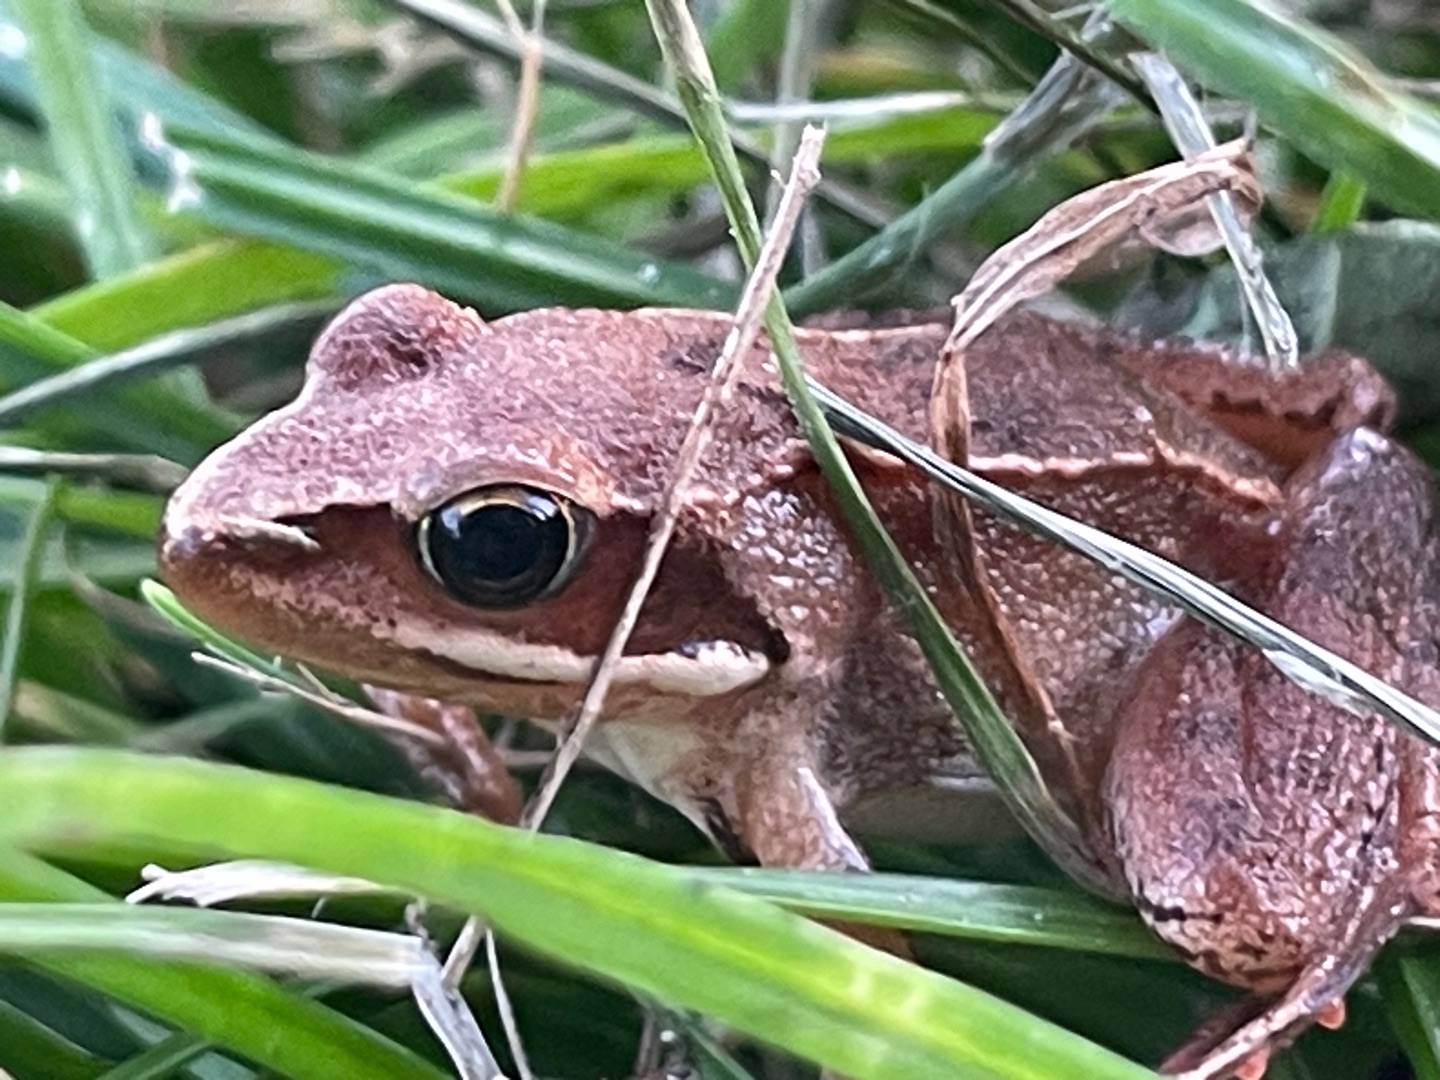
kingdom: Animalia
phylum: Chordata
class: Amphibia
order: Anura
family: Ranidae
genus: Rana
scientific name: Rana dalmatina
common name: Springfrø
